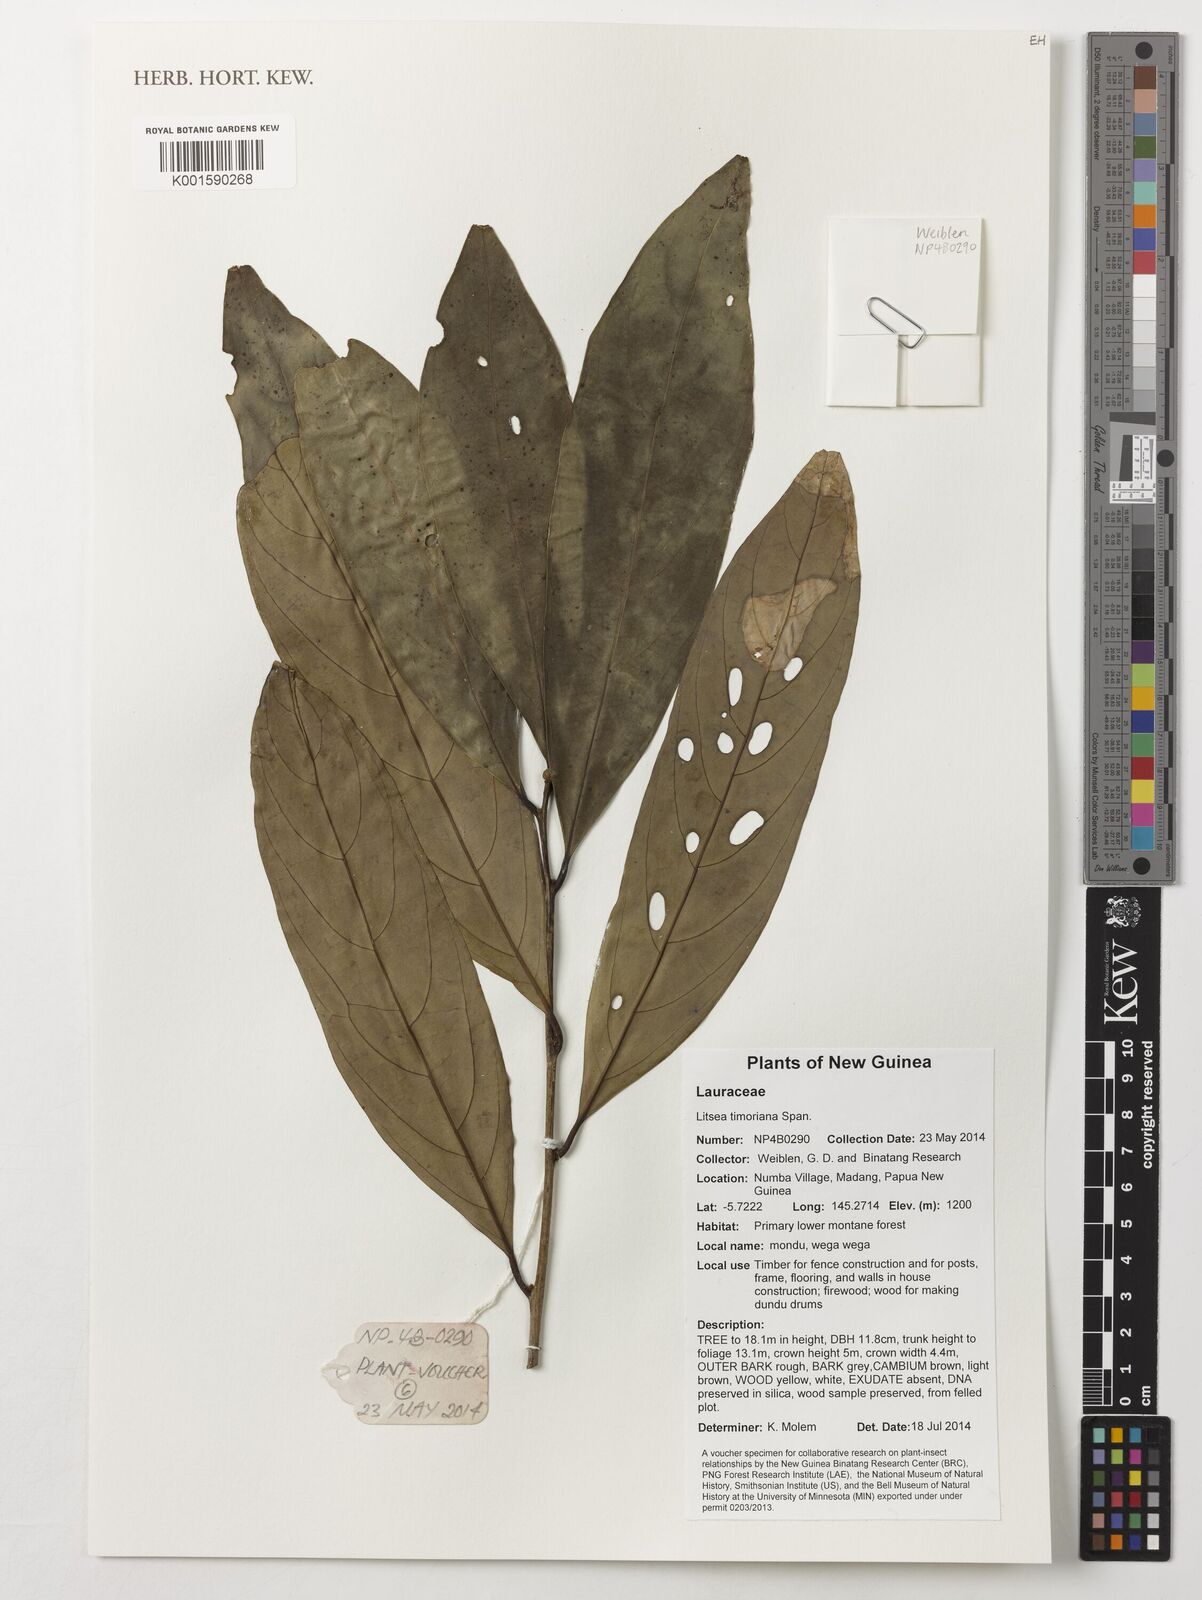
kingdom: Plantae
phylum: Tracheophyta
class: Magnoliopsida
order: Laurales
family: Lauraceae
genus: Litsea
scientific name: Litsea timoriana
